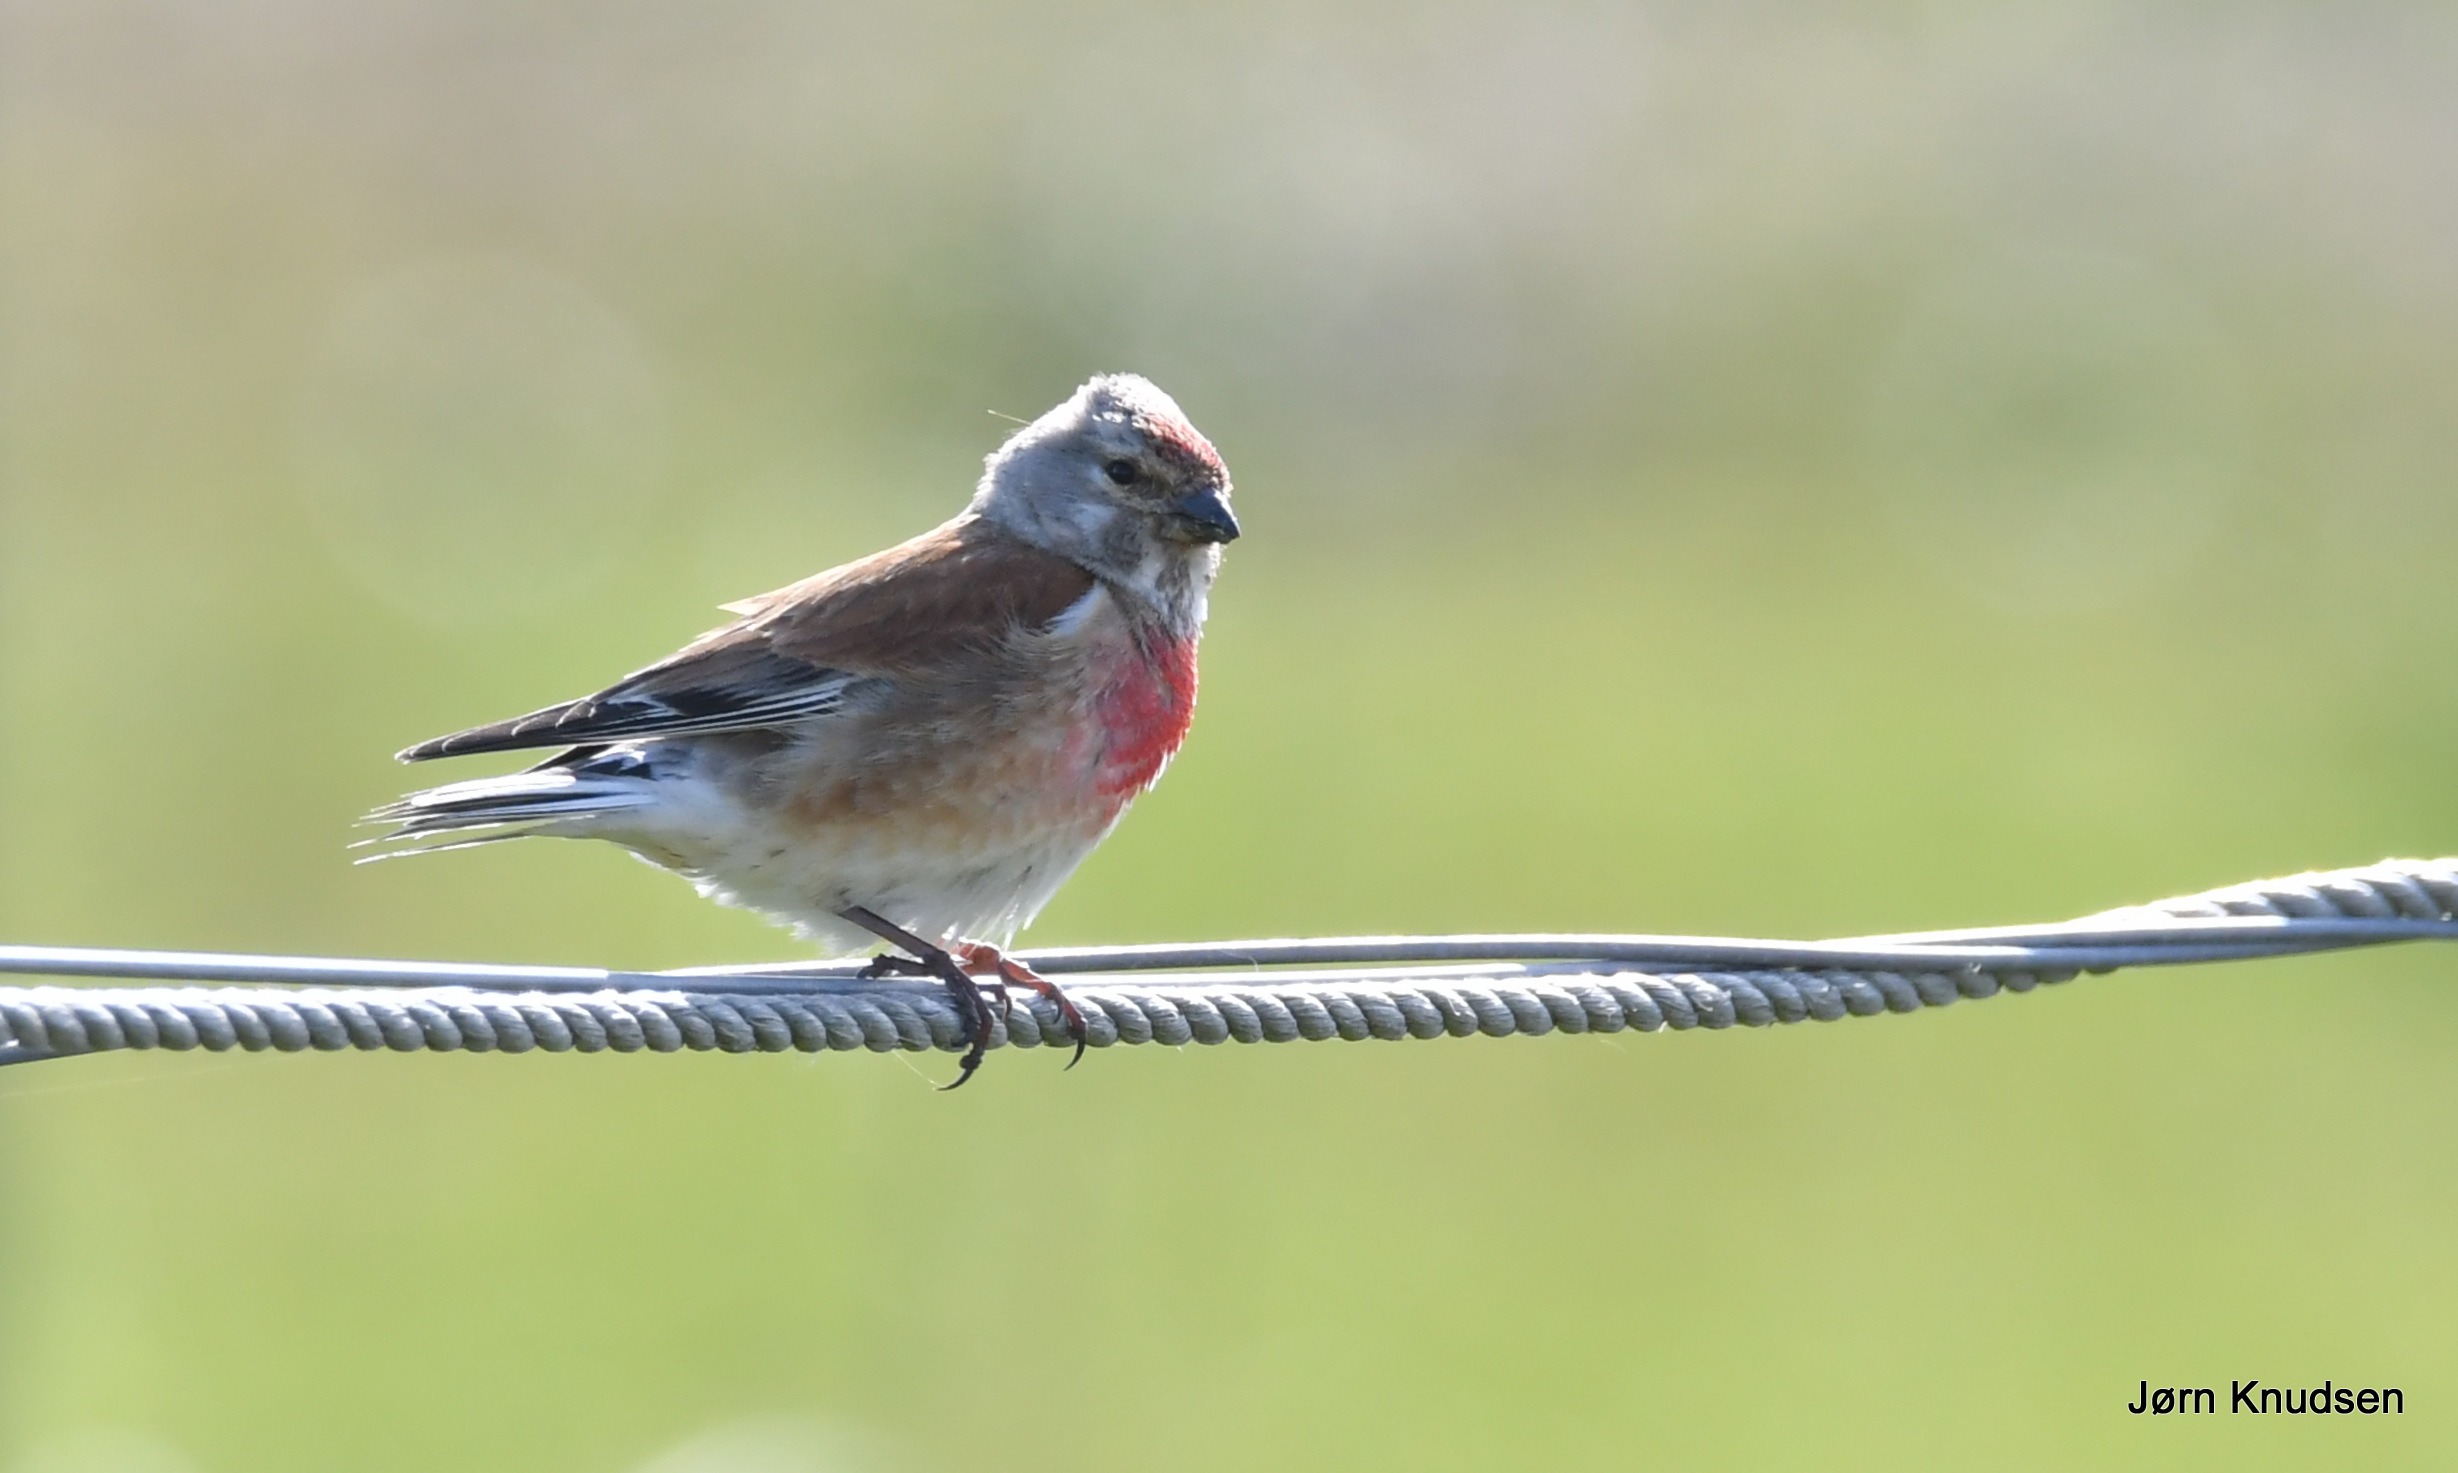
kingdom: Animalia
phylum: Chordata
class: Aves
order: Passeriformes
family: Fringillidae
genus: Linaria
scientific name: Linaria cannabina
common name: Tornirisk
